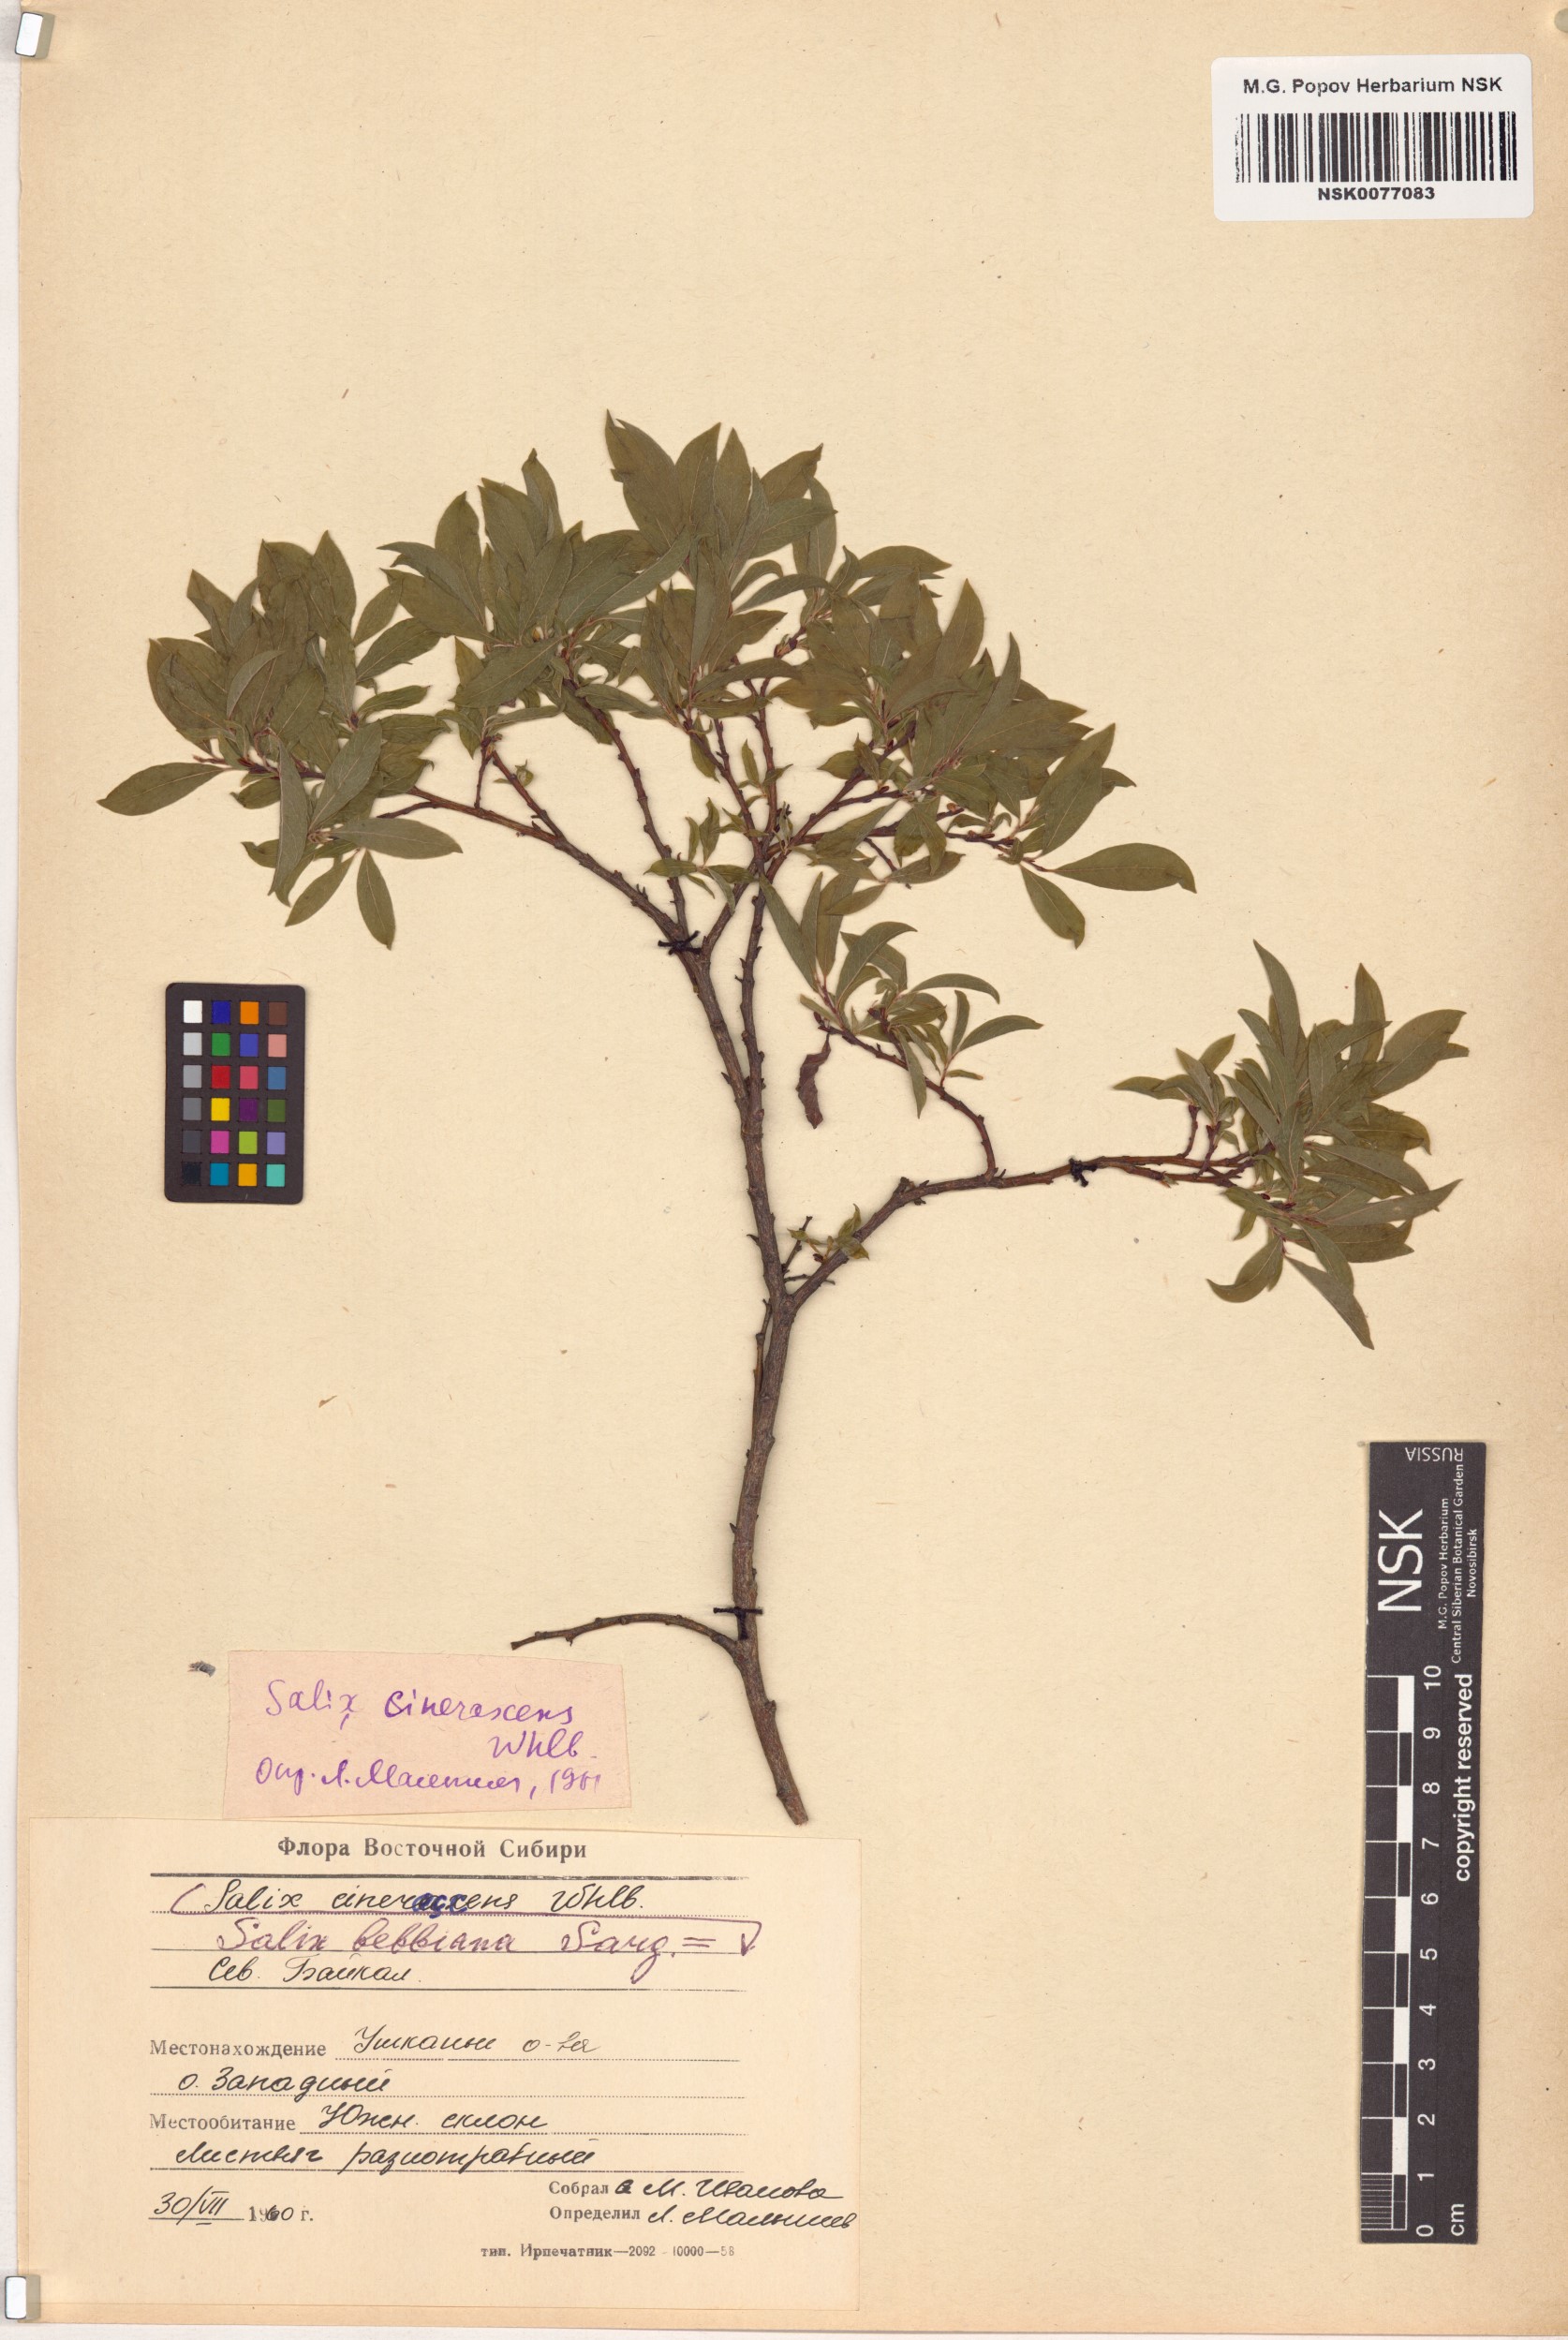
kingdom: Plantae
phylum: Tracheophyta
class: Magnoliopsida
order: Malpighiales
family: Salicaceae
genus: Salix
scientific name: Salix bebbiana
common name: Bebb's willow
